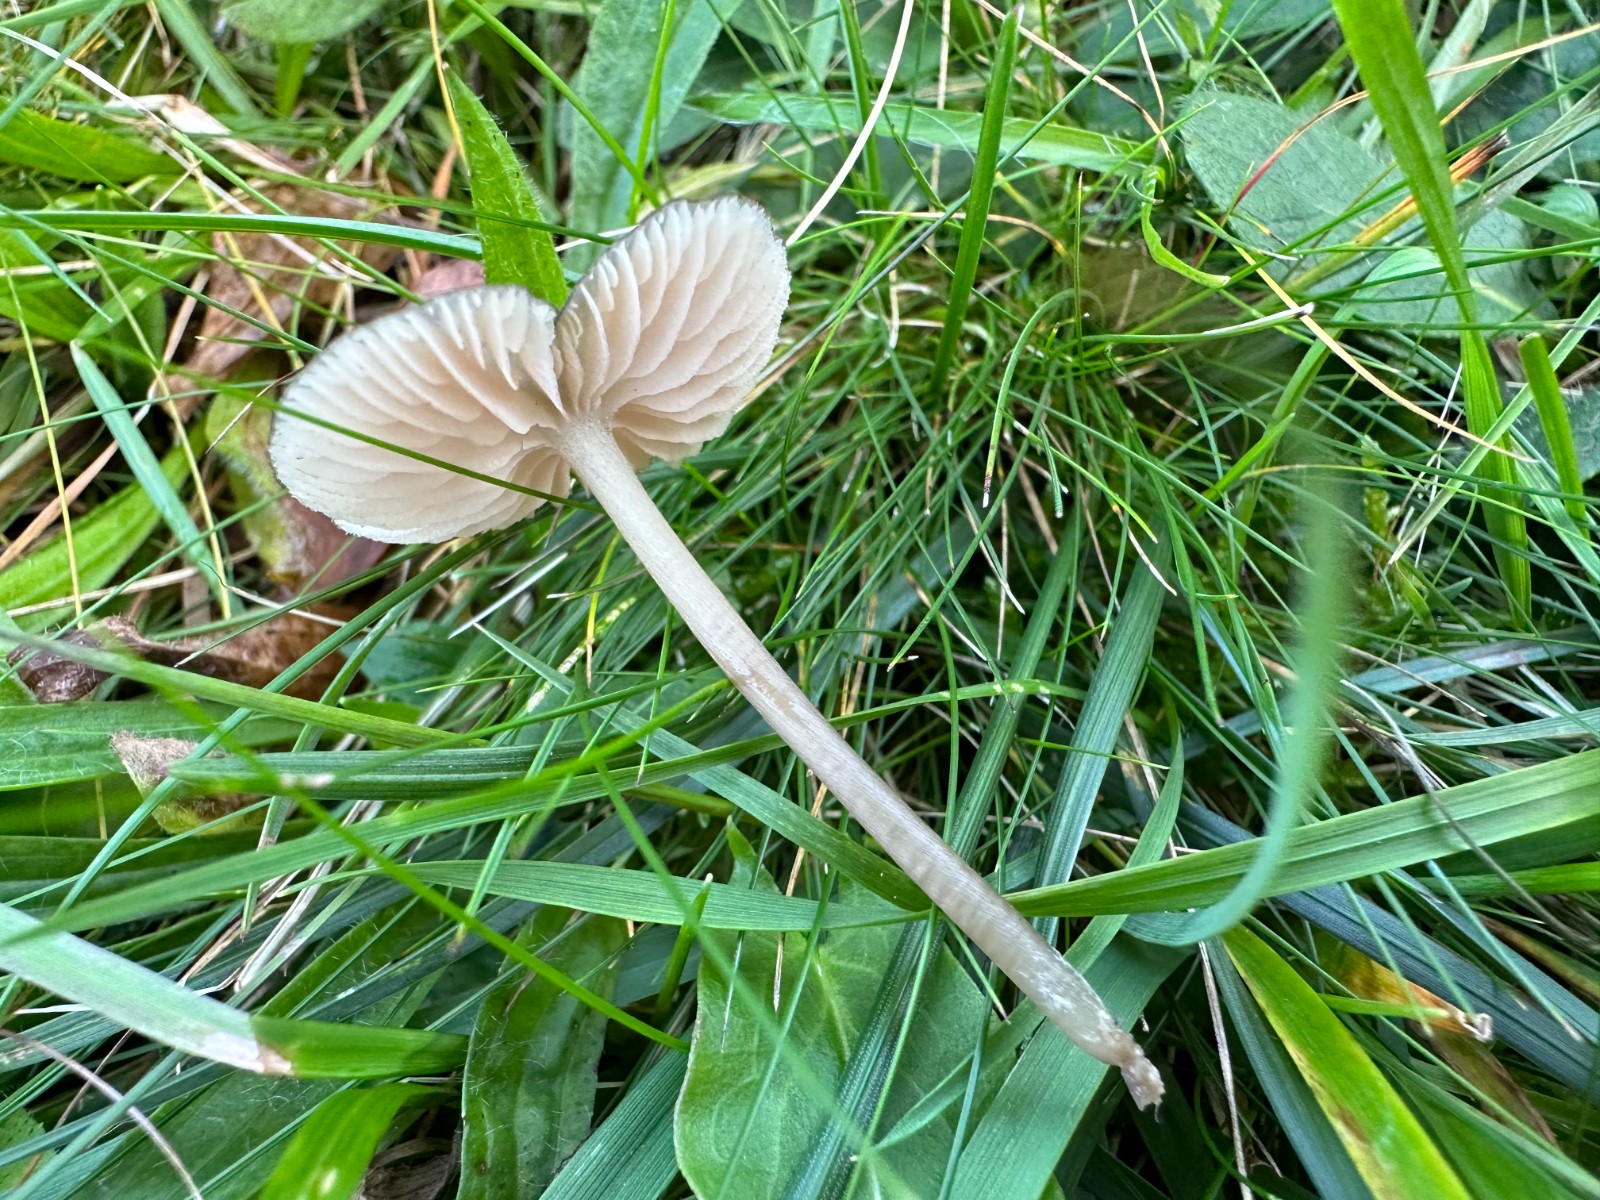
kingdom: Fungi
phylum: Basidiomycota
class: Agaricomycetes
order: Agaricales
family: Entolomataceae
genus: Entoloma
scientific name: Entoloma exile
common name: rødplettet rødblad
